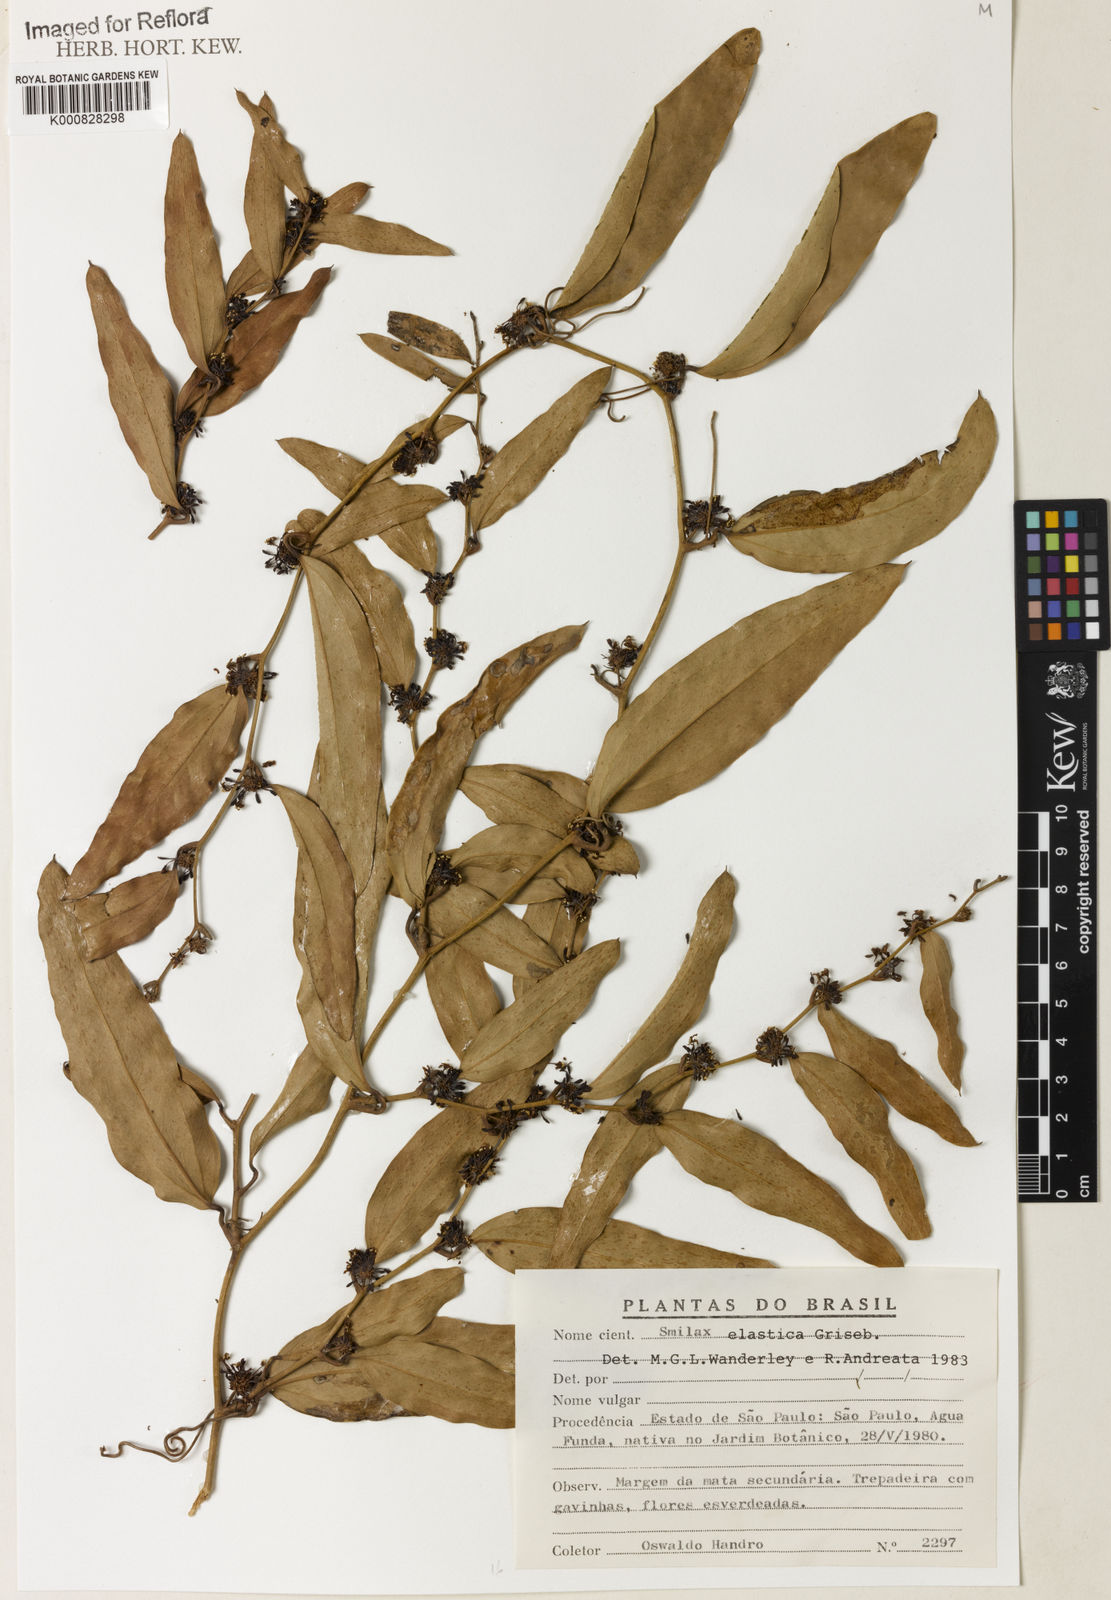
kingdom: Plantae
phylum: Tracheophyta
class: Liliopsida
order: Liliales
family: Smilacaceae
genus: Smilax
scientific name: Smilax elastica
